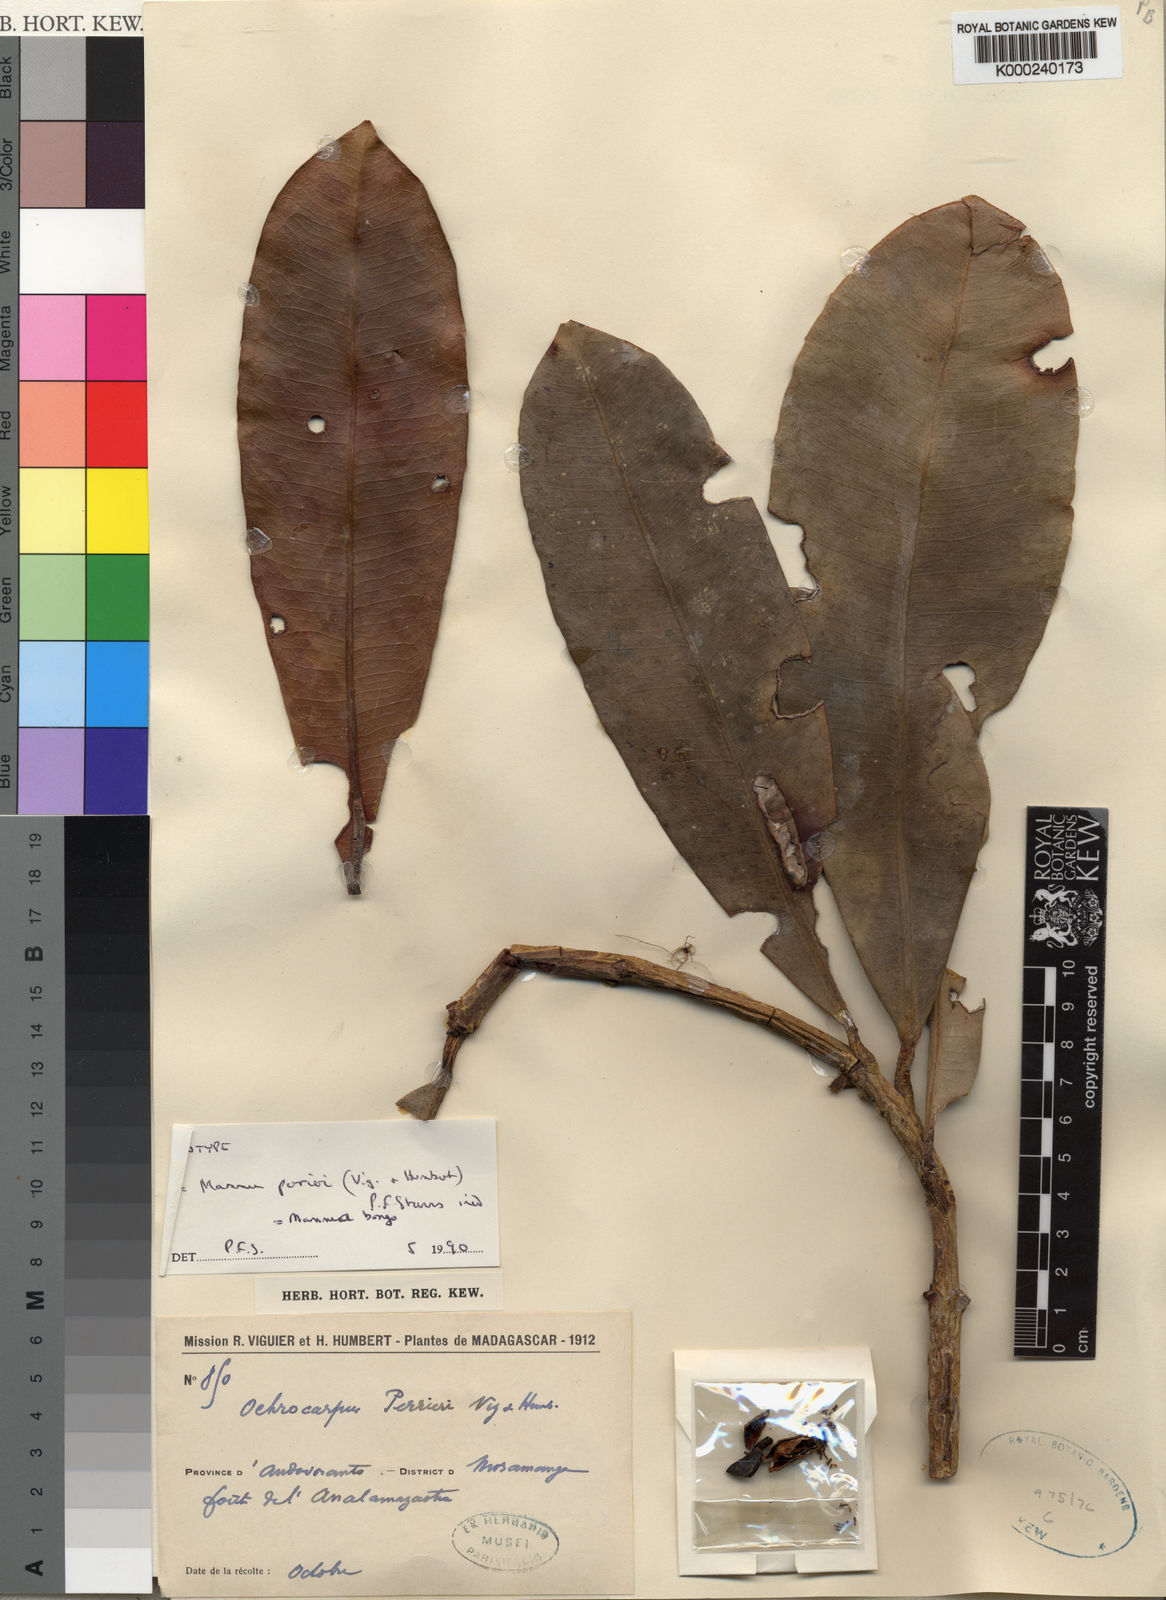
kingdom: Plantae
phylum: Tracheophyta
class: Magnoliopsida
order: Malpighiales
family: Calophyllaceae
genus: Mammea
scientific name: Mammea bongo
